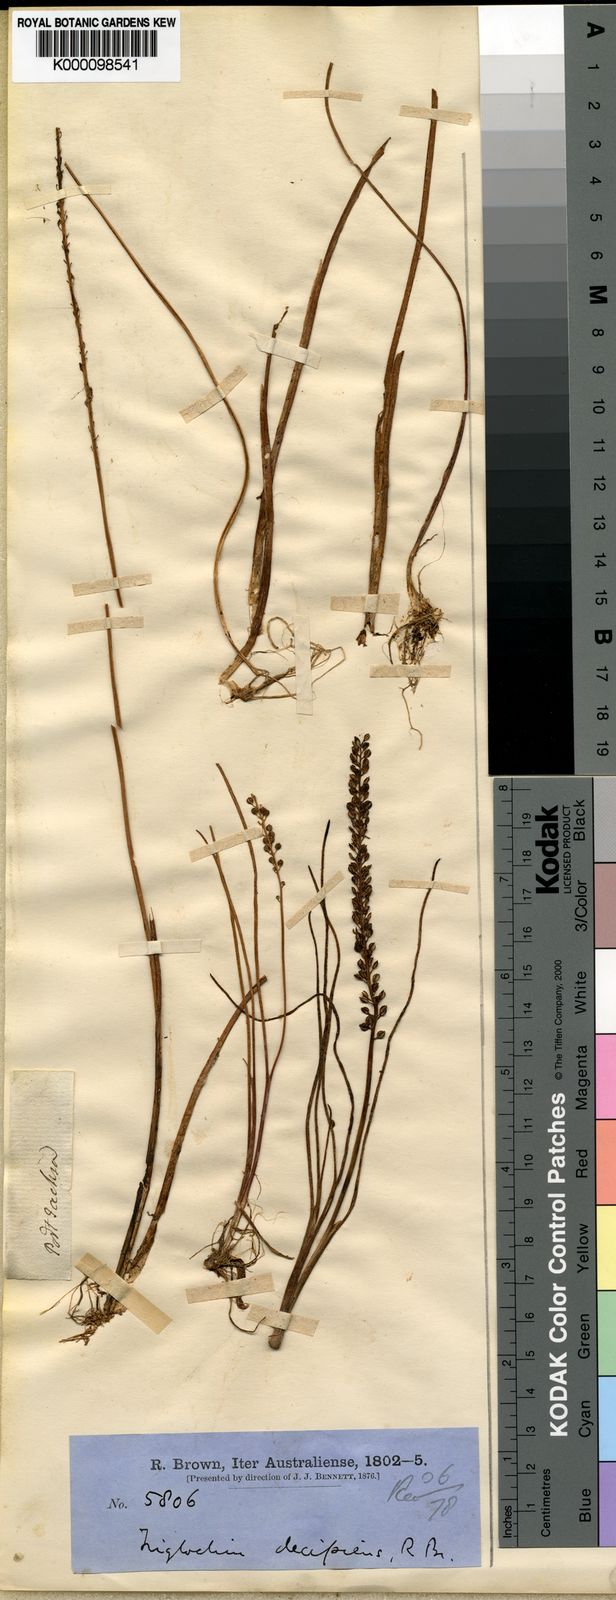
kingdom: Plantae
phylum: Tracheophyta
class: Liliopsida
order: Alismatales
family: Juncaginaceae
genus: Triglochin
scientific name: Triglochin striata
